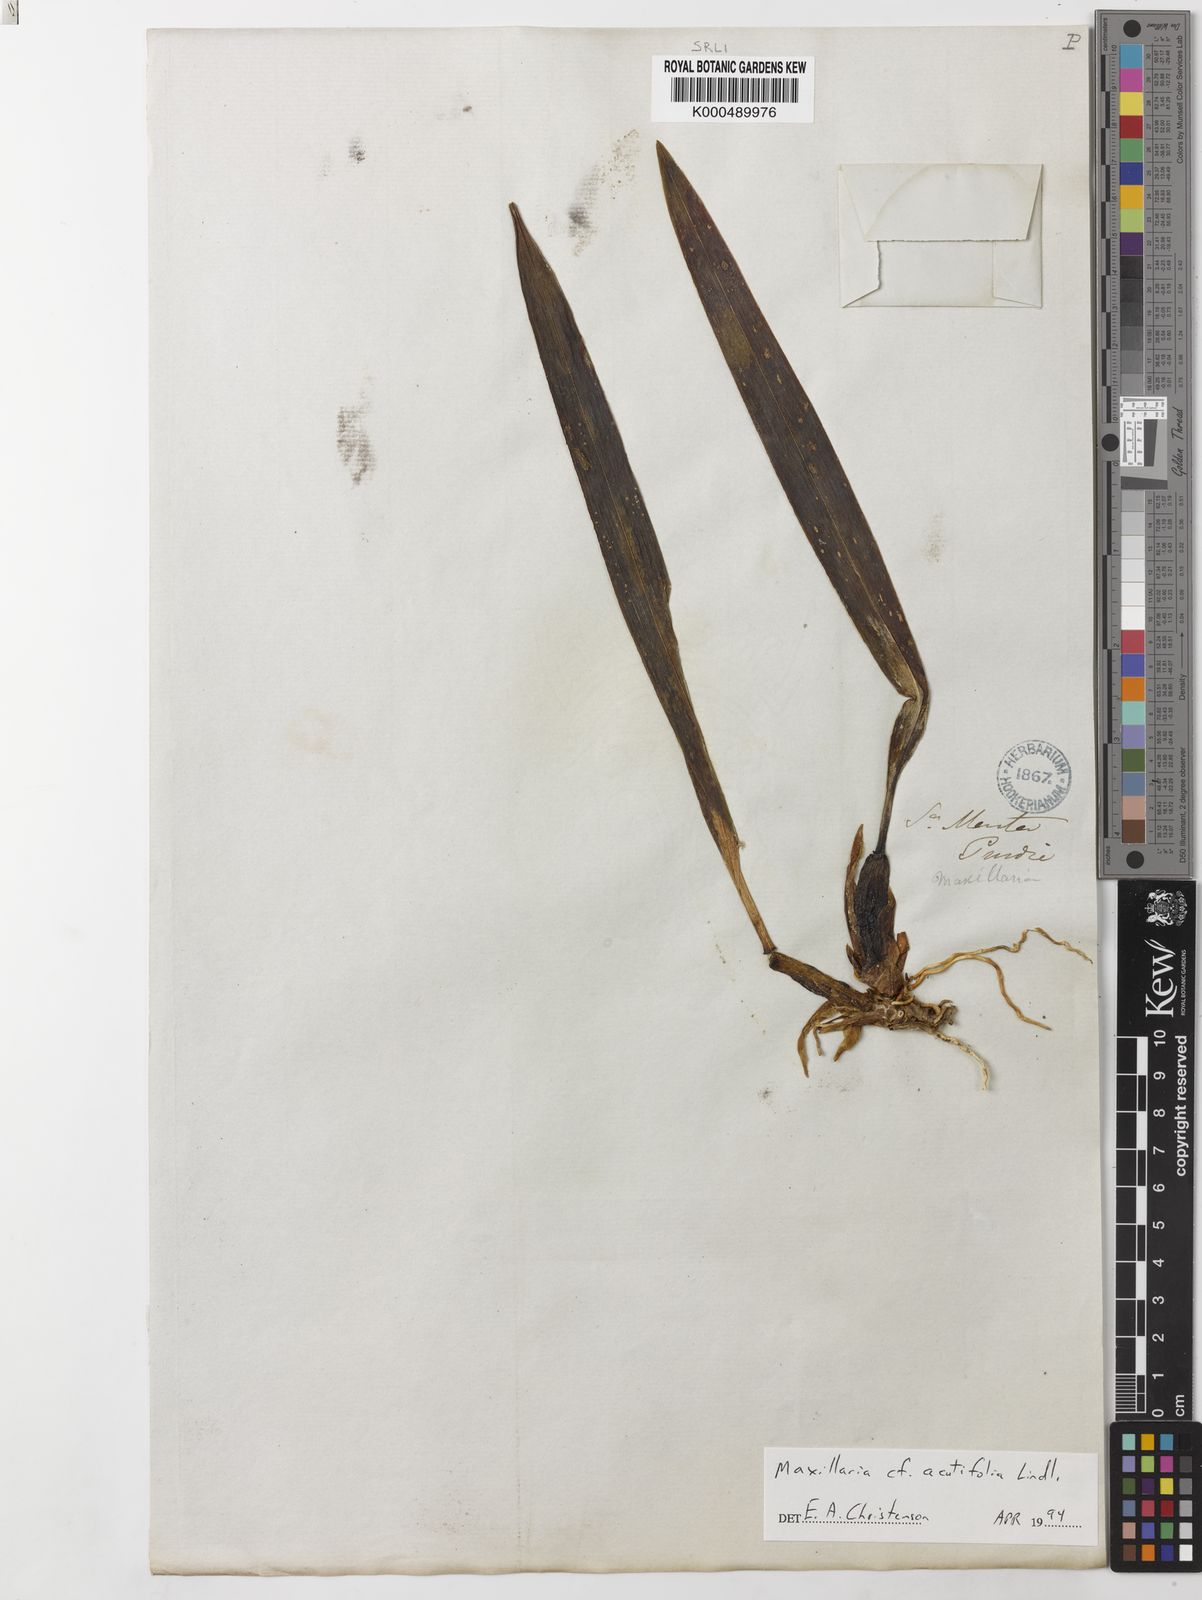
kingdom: Plantae
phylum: Tracheophyta
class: Liliopsida
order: Asparagales
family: Orchidaceae
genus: Maxillaria
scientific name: Maxillaria acutifolia
